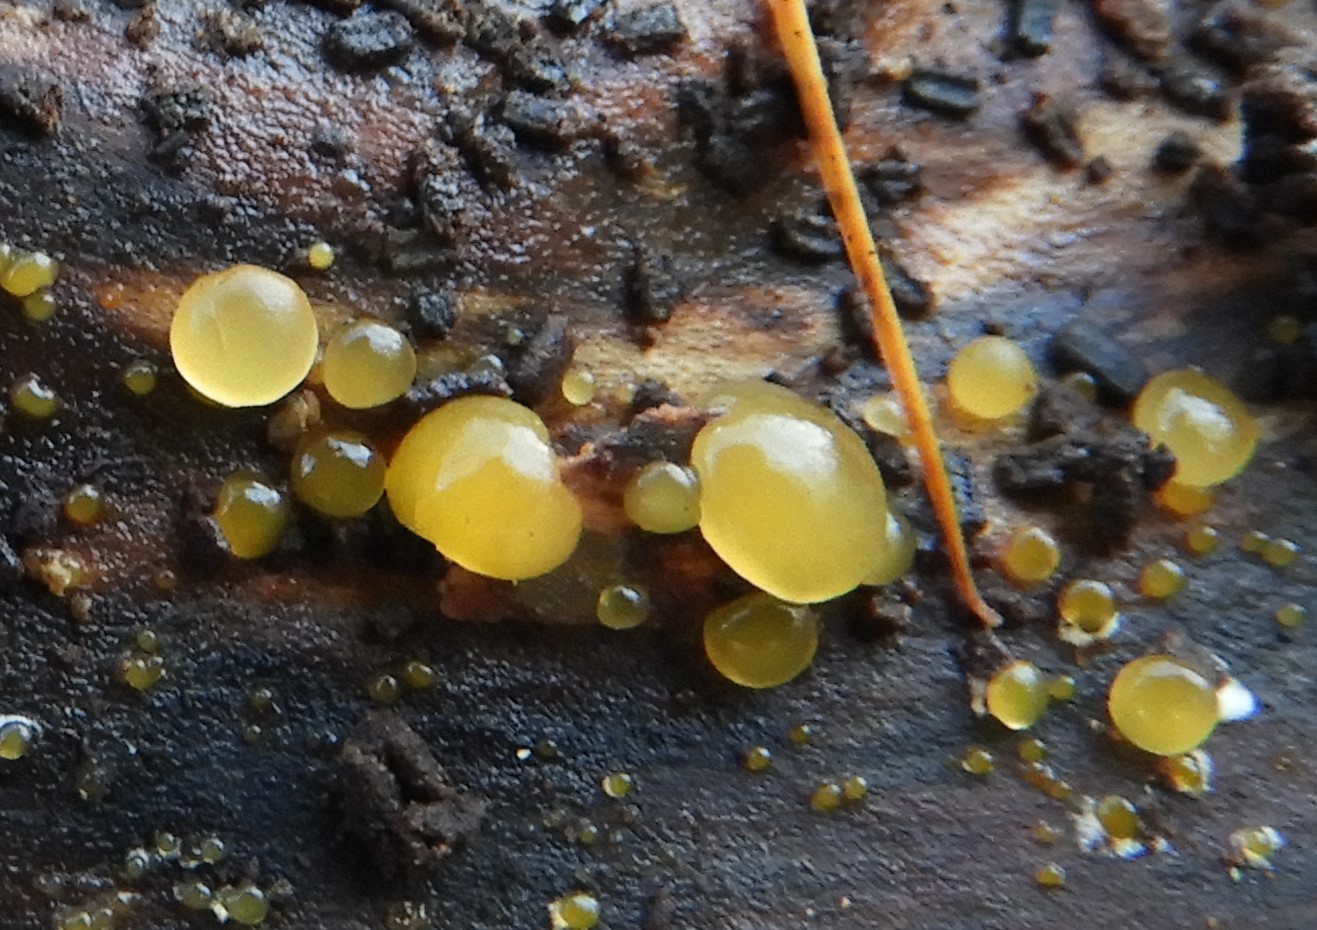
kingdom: Fungi
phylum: Basidiomycota
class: Dacrymycetes
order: Dacrymycetales
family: Dacrymycetaceae
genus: Dacrymyces
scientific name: Dacrymyces
